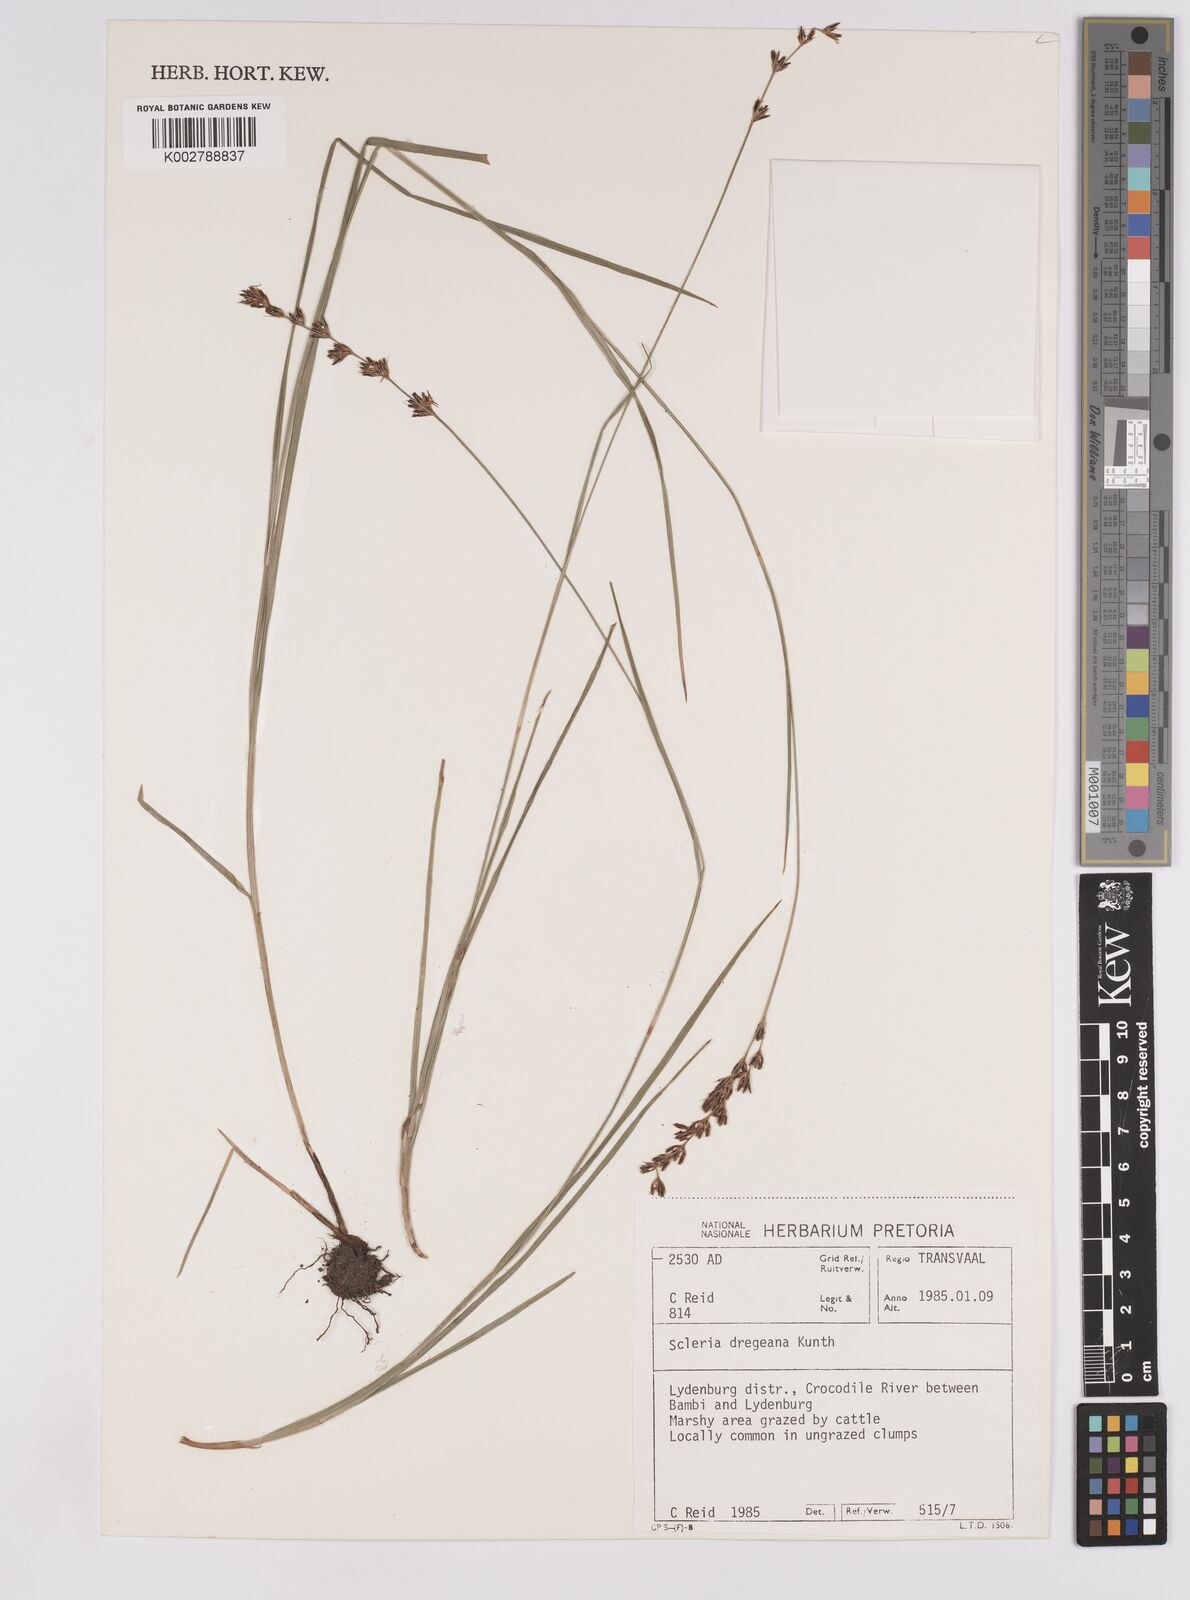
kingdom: Plantae
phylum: Tracheophyta
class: Liliopsida
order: Poales
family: Cyperaceae
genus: Scleria
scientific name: Scleria dregeana
